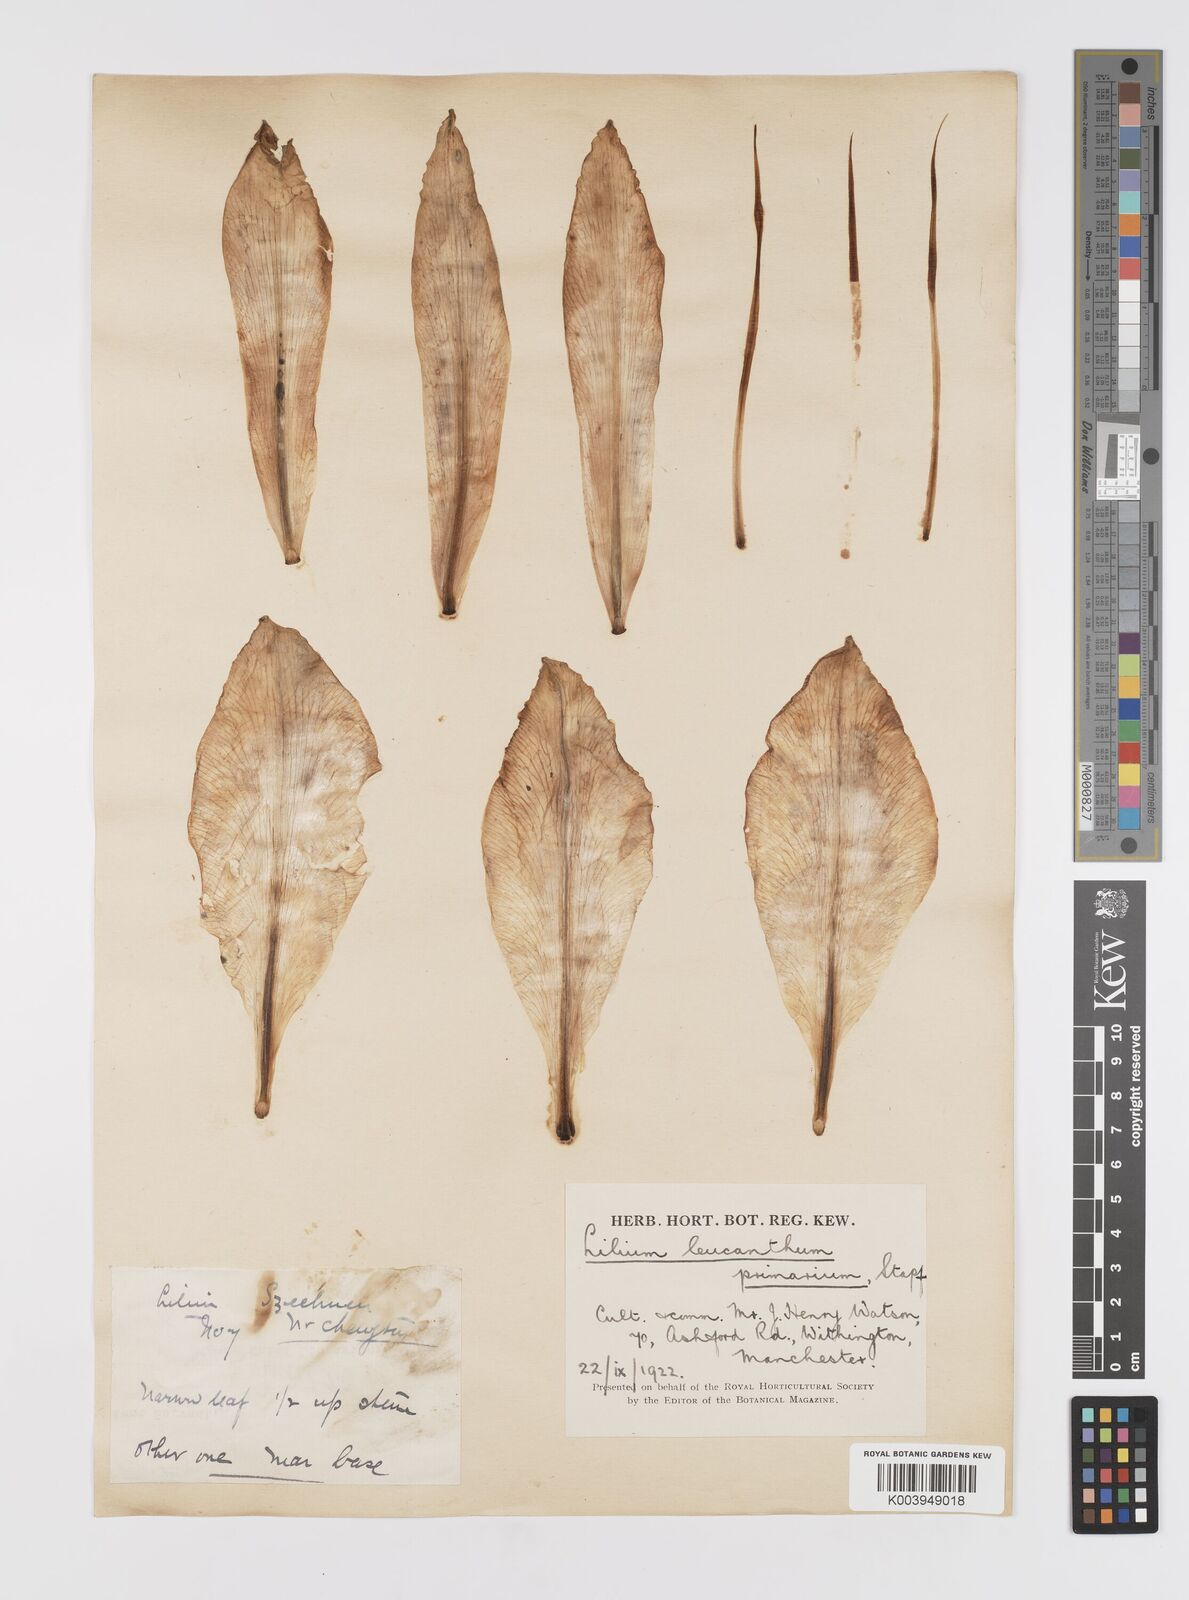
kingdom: Plantae
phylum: Tracheophyta
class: Liliopsida
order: Liliales
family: Liliaceae
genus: Lilium
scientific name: Lilium sargentiae
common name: Sargent lily
